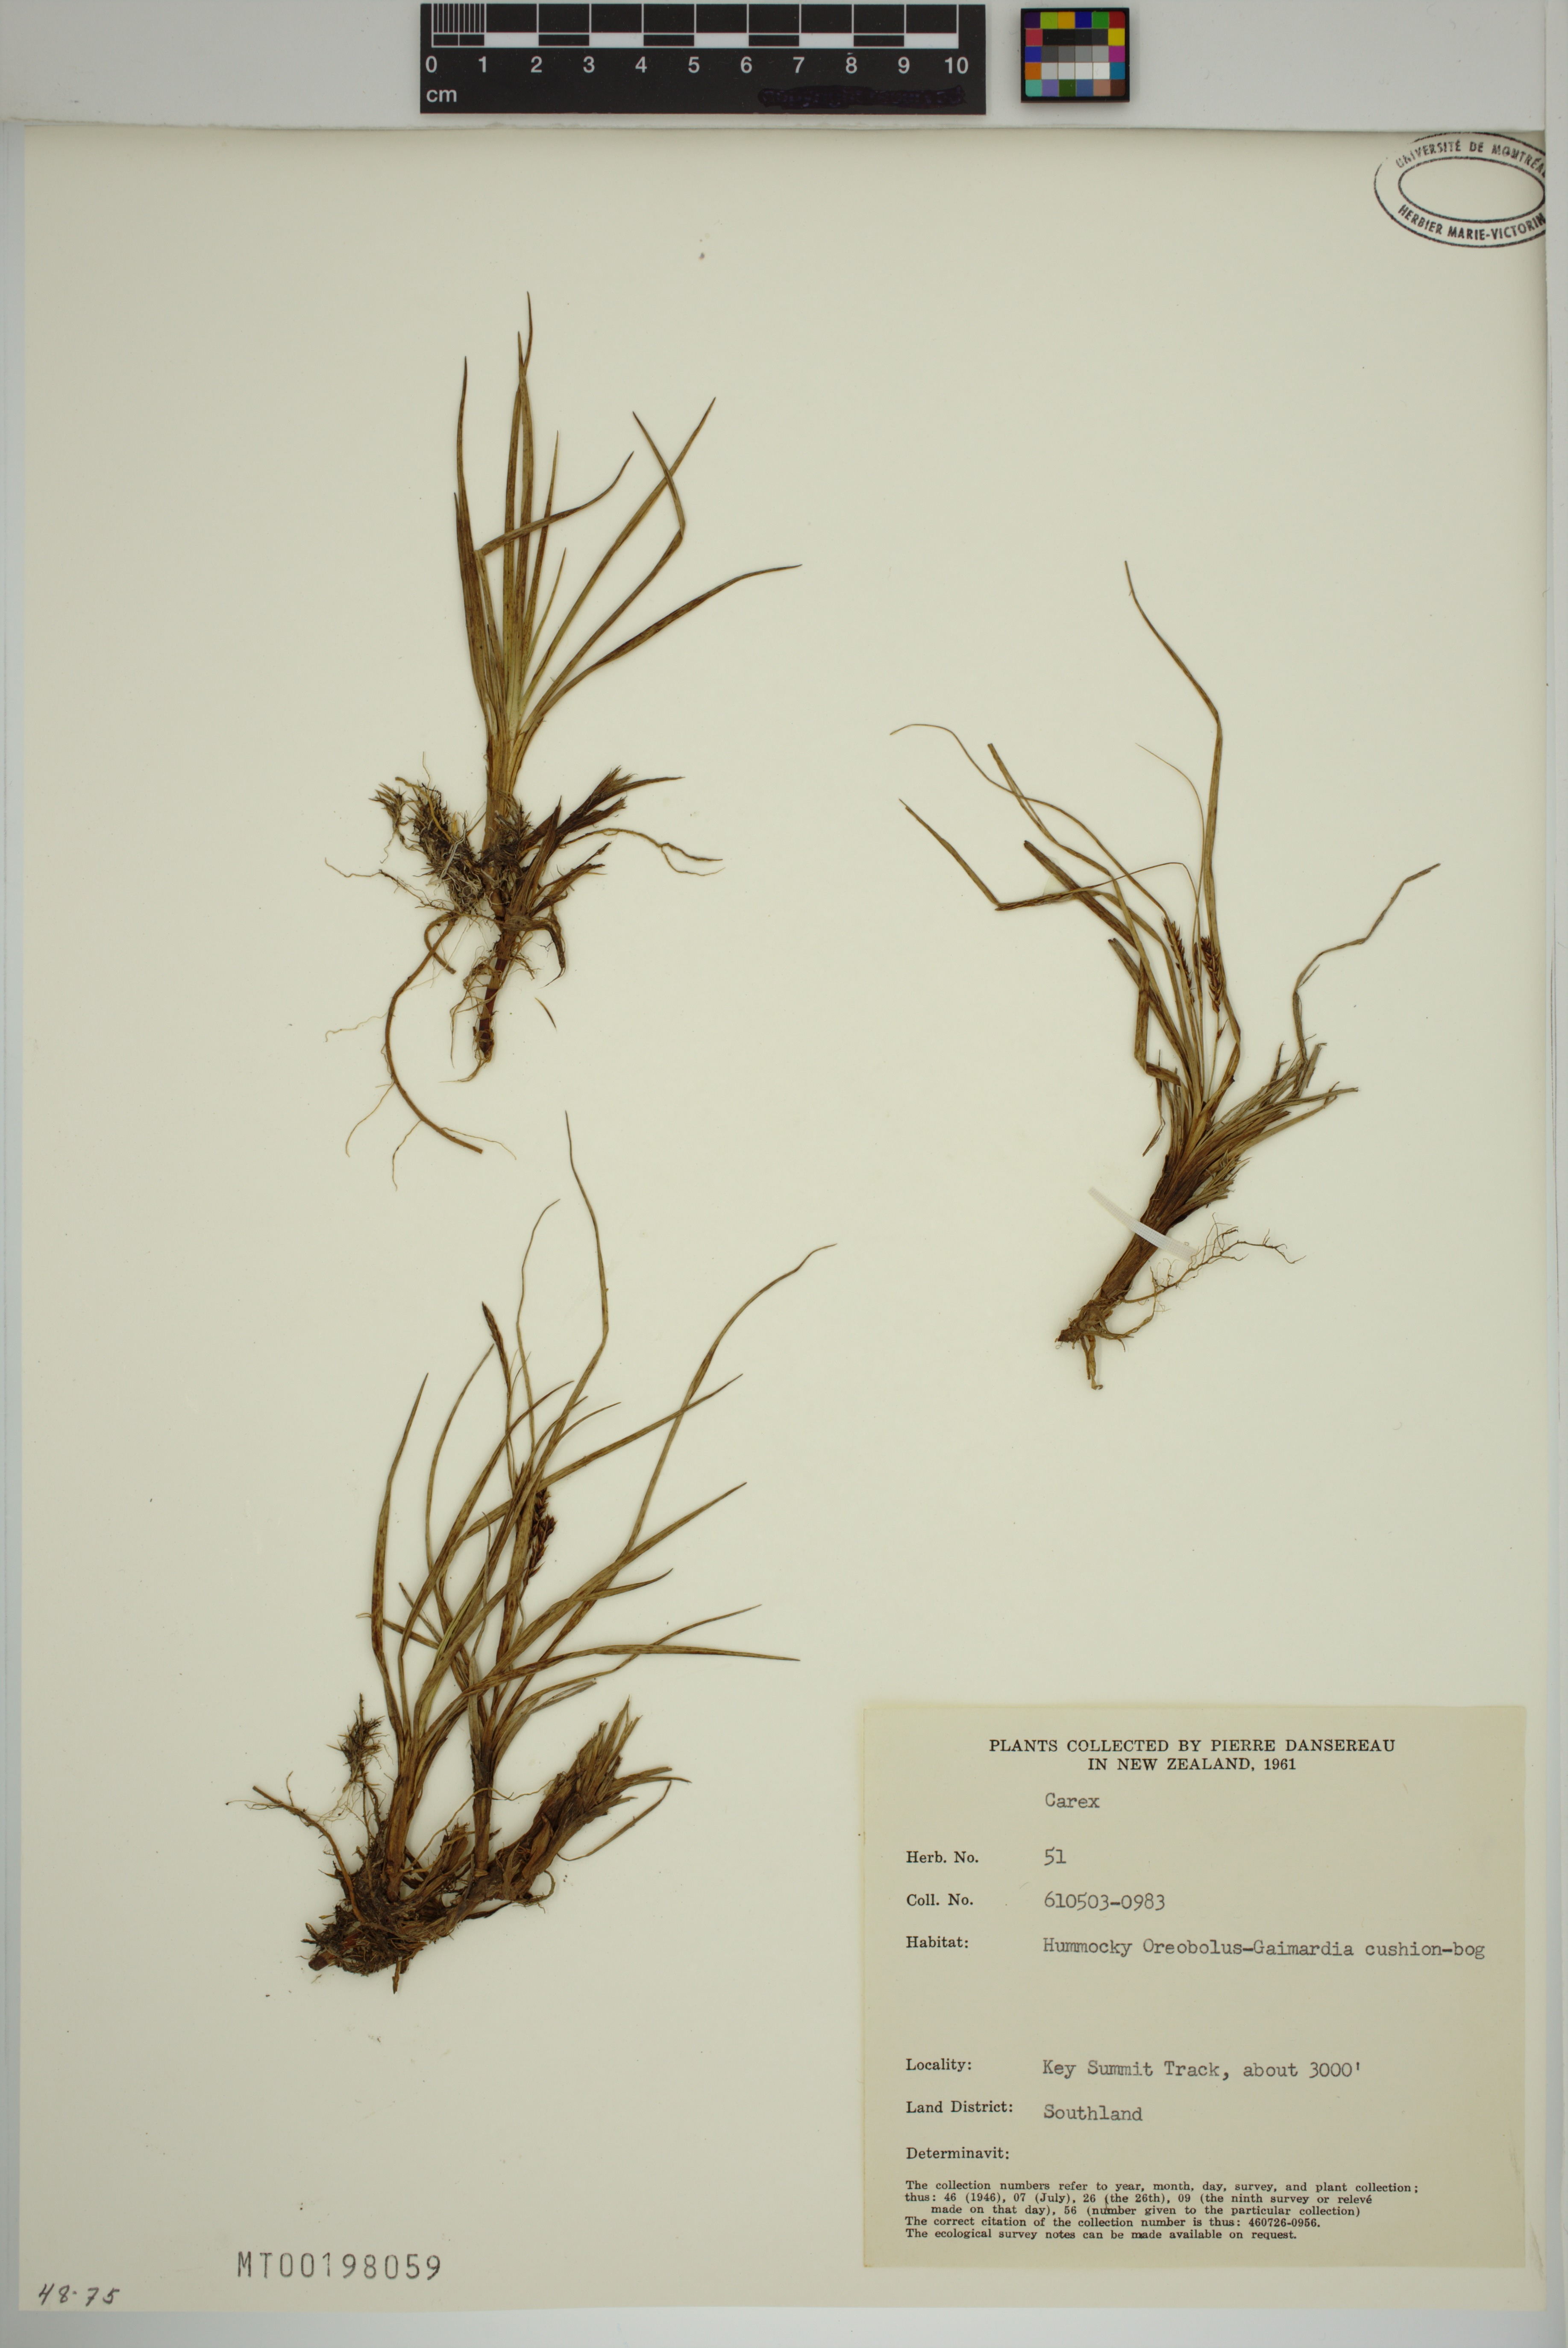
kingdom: Plantae
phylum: Tracheophyta
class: Liliopsida
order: Poales
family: Cyperaceae
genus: Carex
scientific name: Carex
